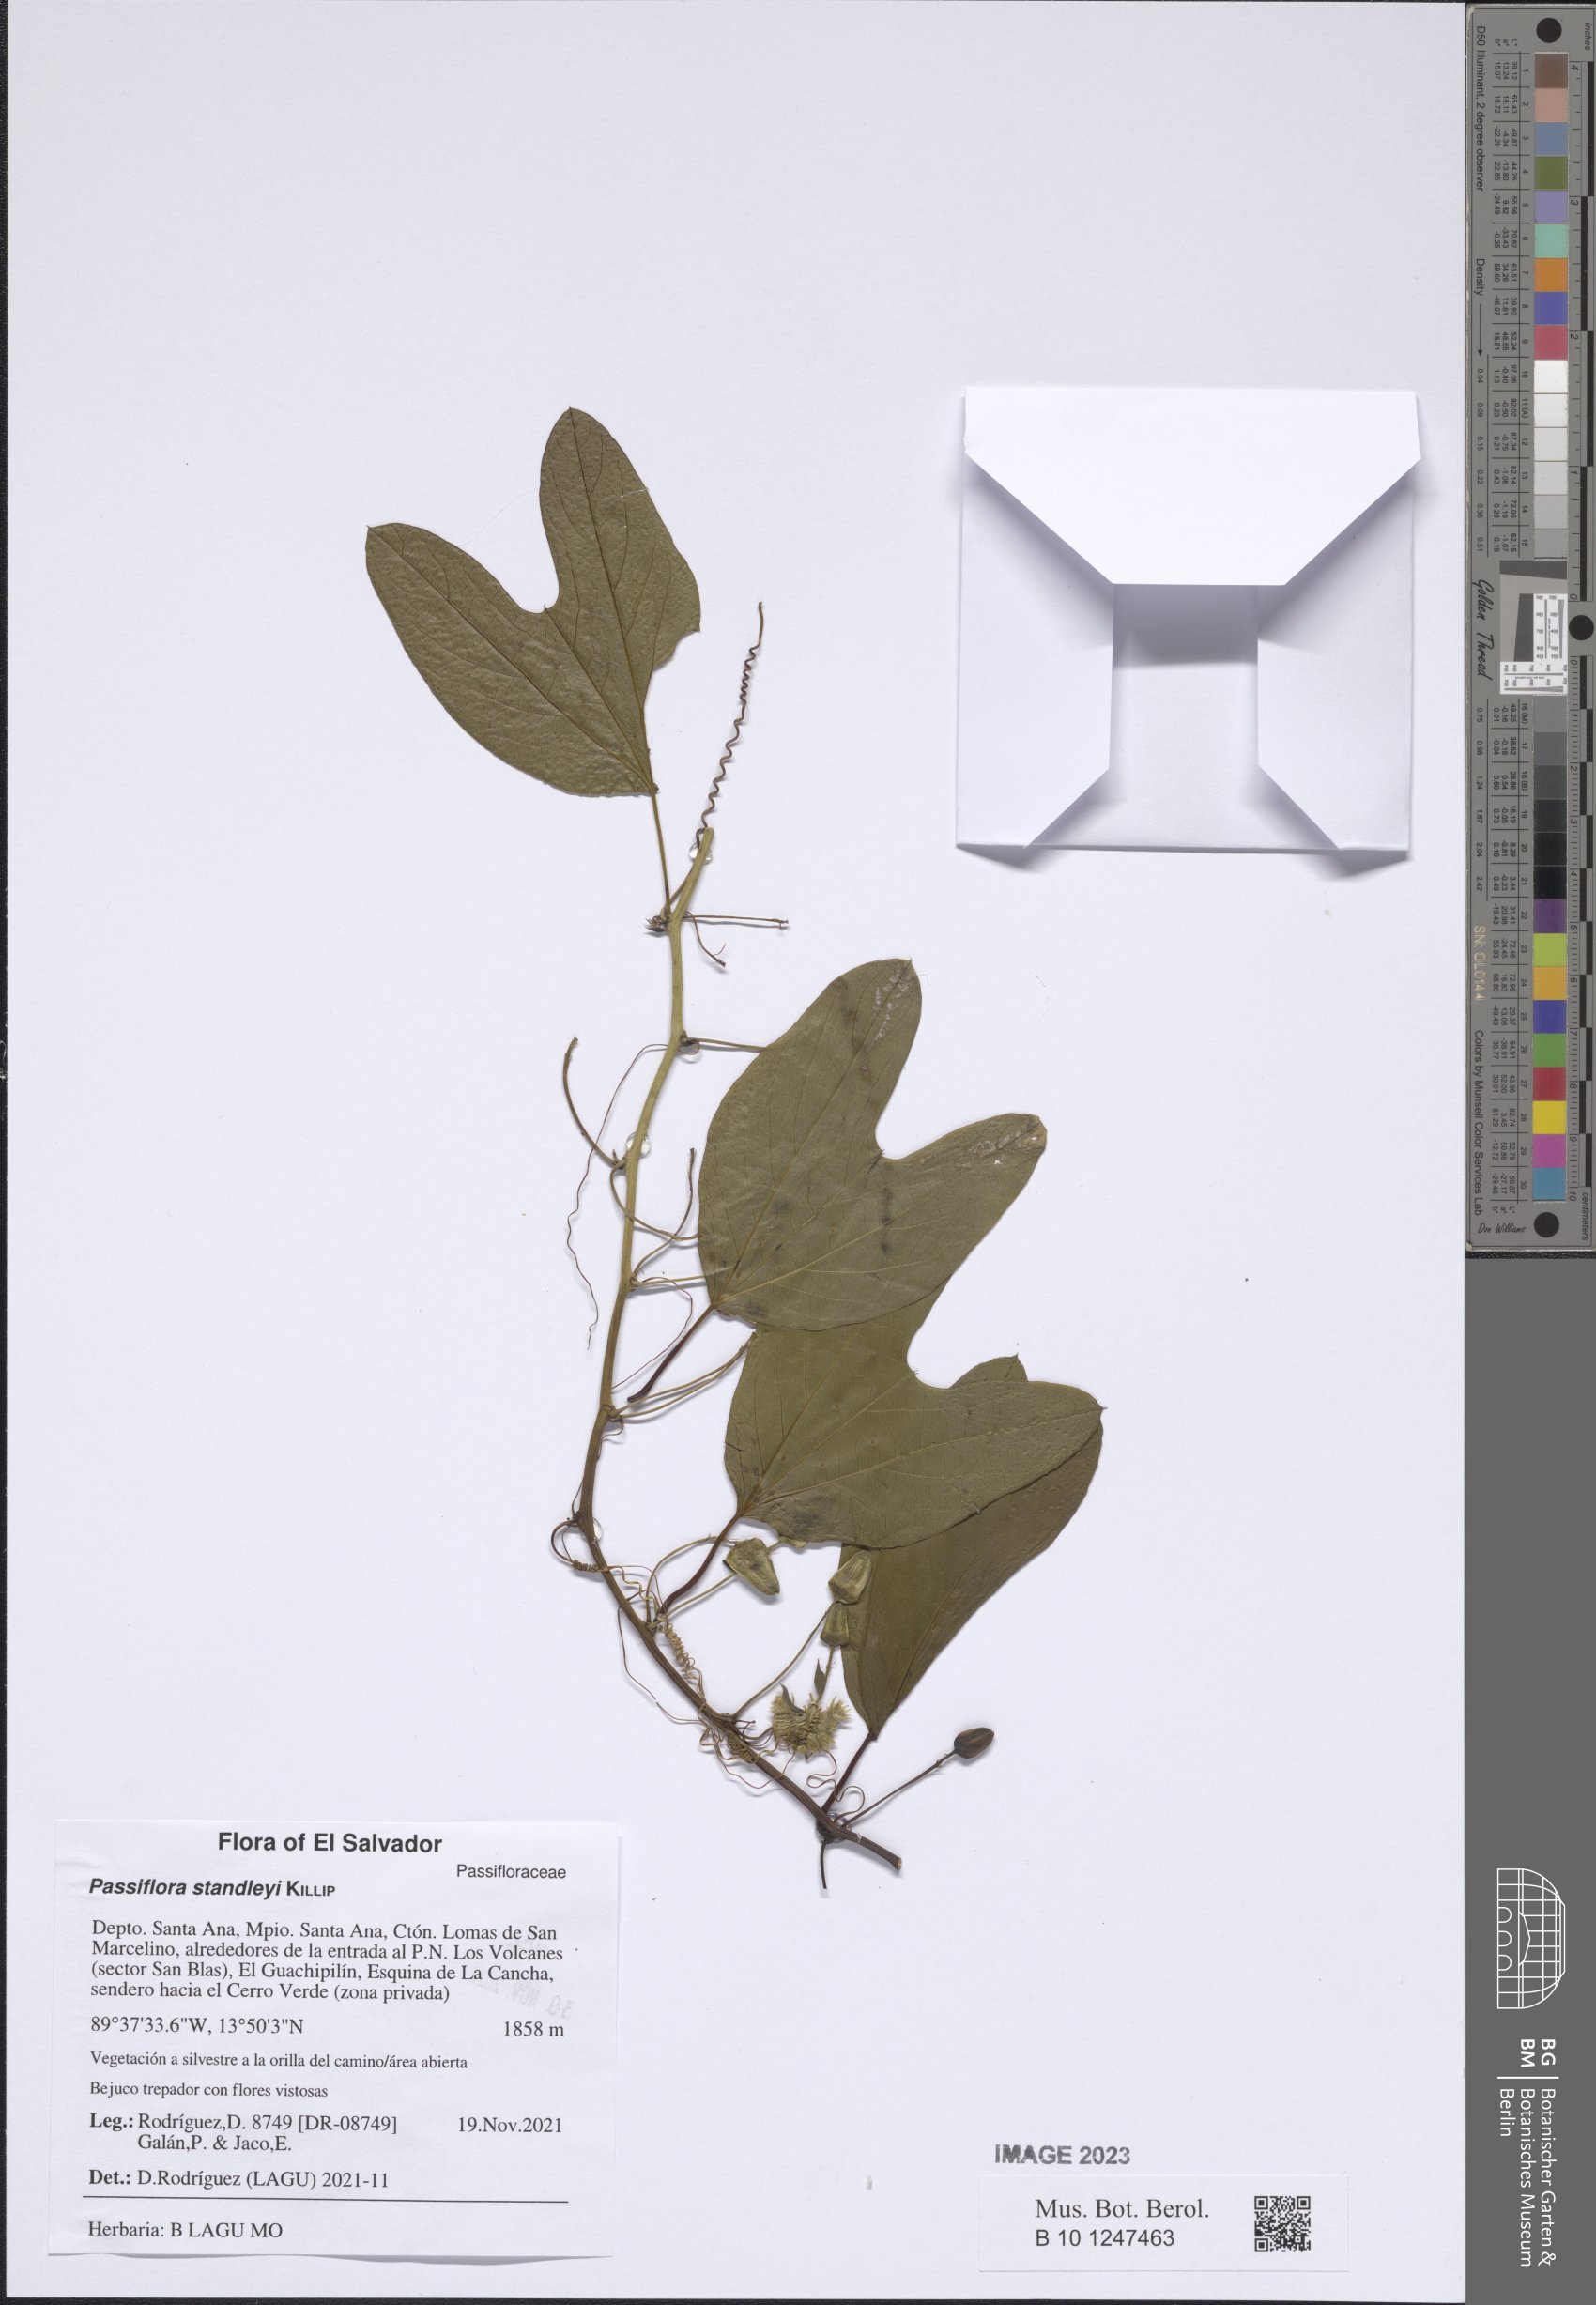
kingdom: Plantae
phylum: Tracheophyta
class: Magnoliopsida
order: Malpighiales
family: Passifloraceae
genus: Passiflora
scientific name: Passiflora standleyi
